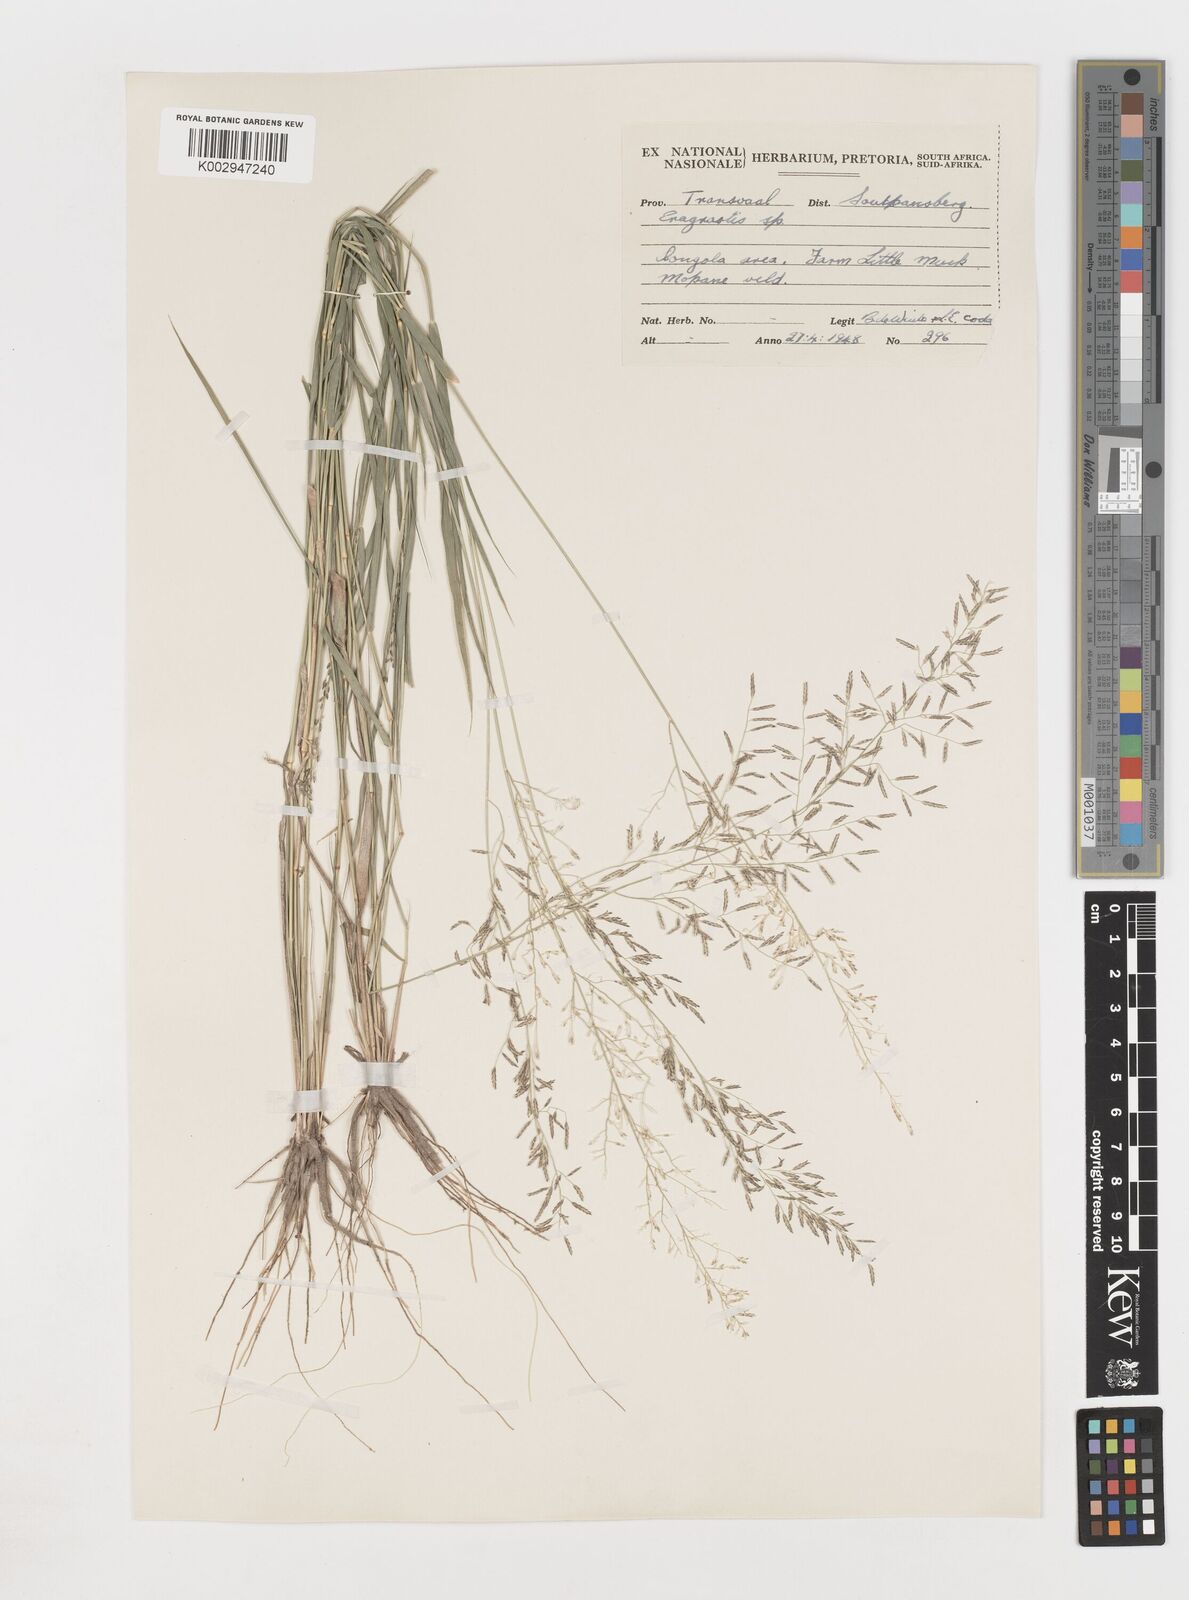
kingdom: Plantae
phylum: Tracheophyta
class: Liliopsida
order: Poales
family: Poaceae
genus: Eragrostis
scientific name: Eragrostis
